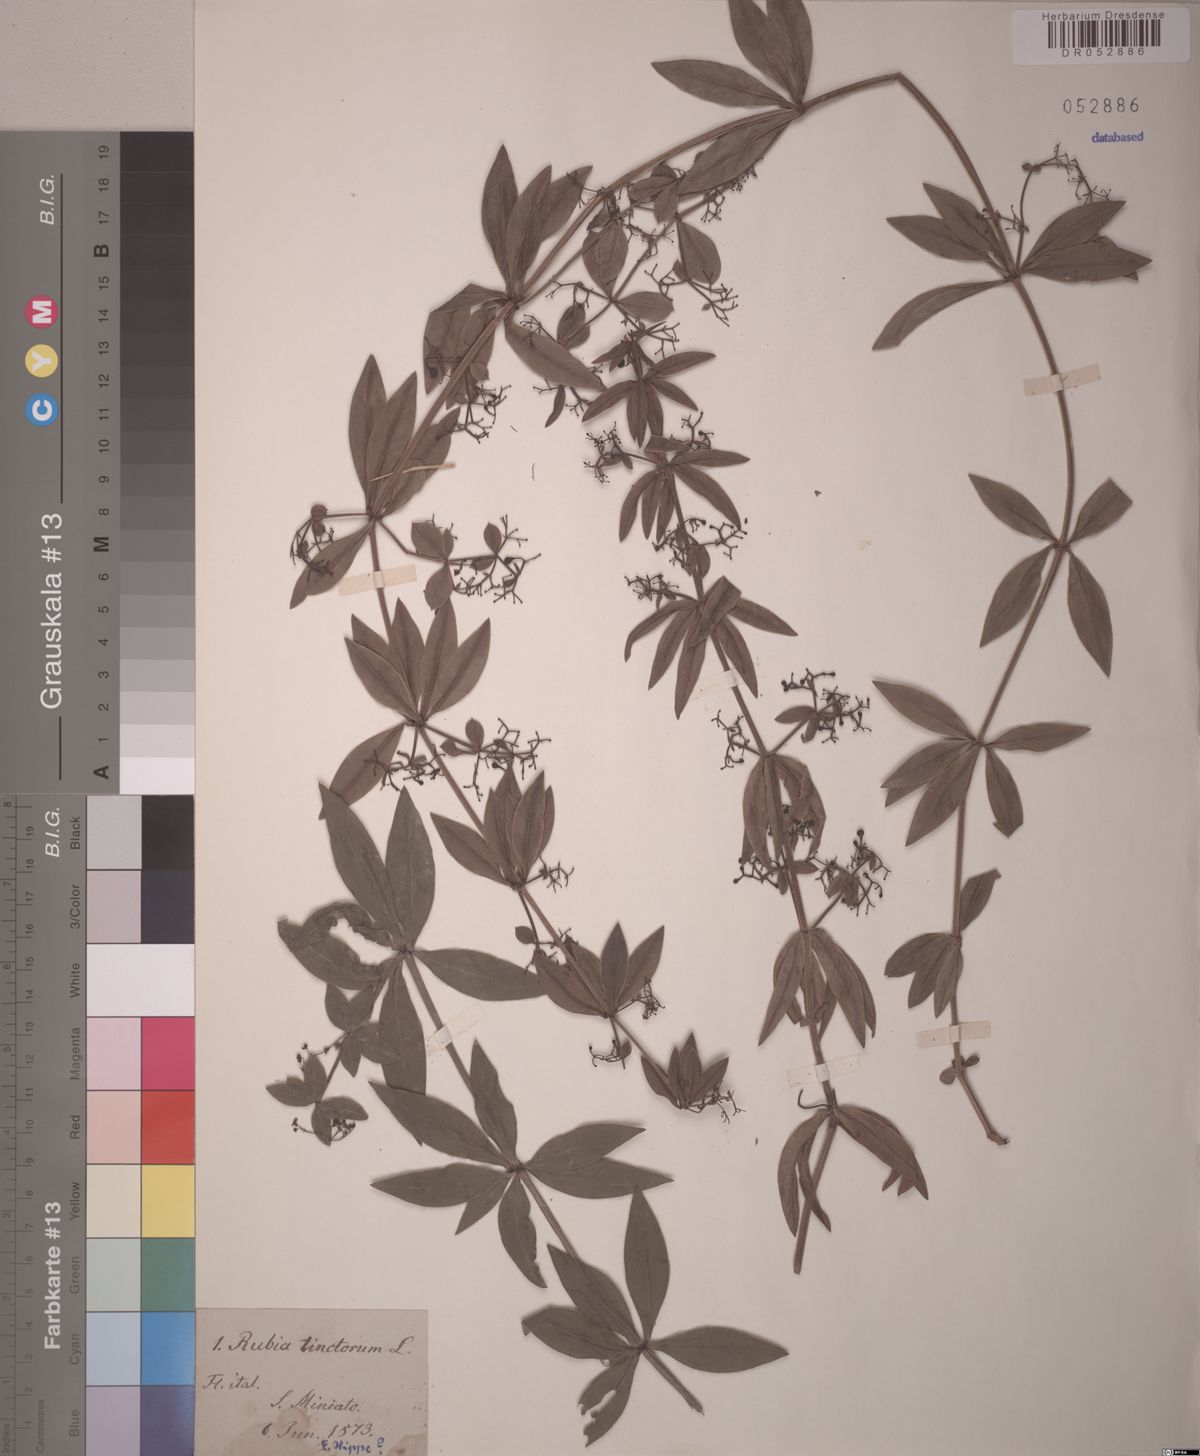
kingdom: Plantae
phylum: Tracheophyta
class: Magnoliopsida
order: Gentianales
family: Rubiaceae
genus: Rubia
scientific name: Rubia tinctorum
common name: Dyer's madder
